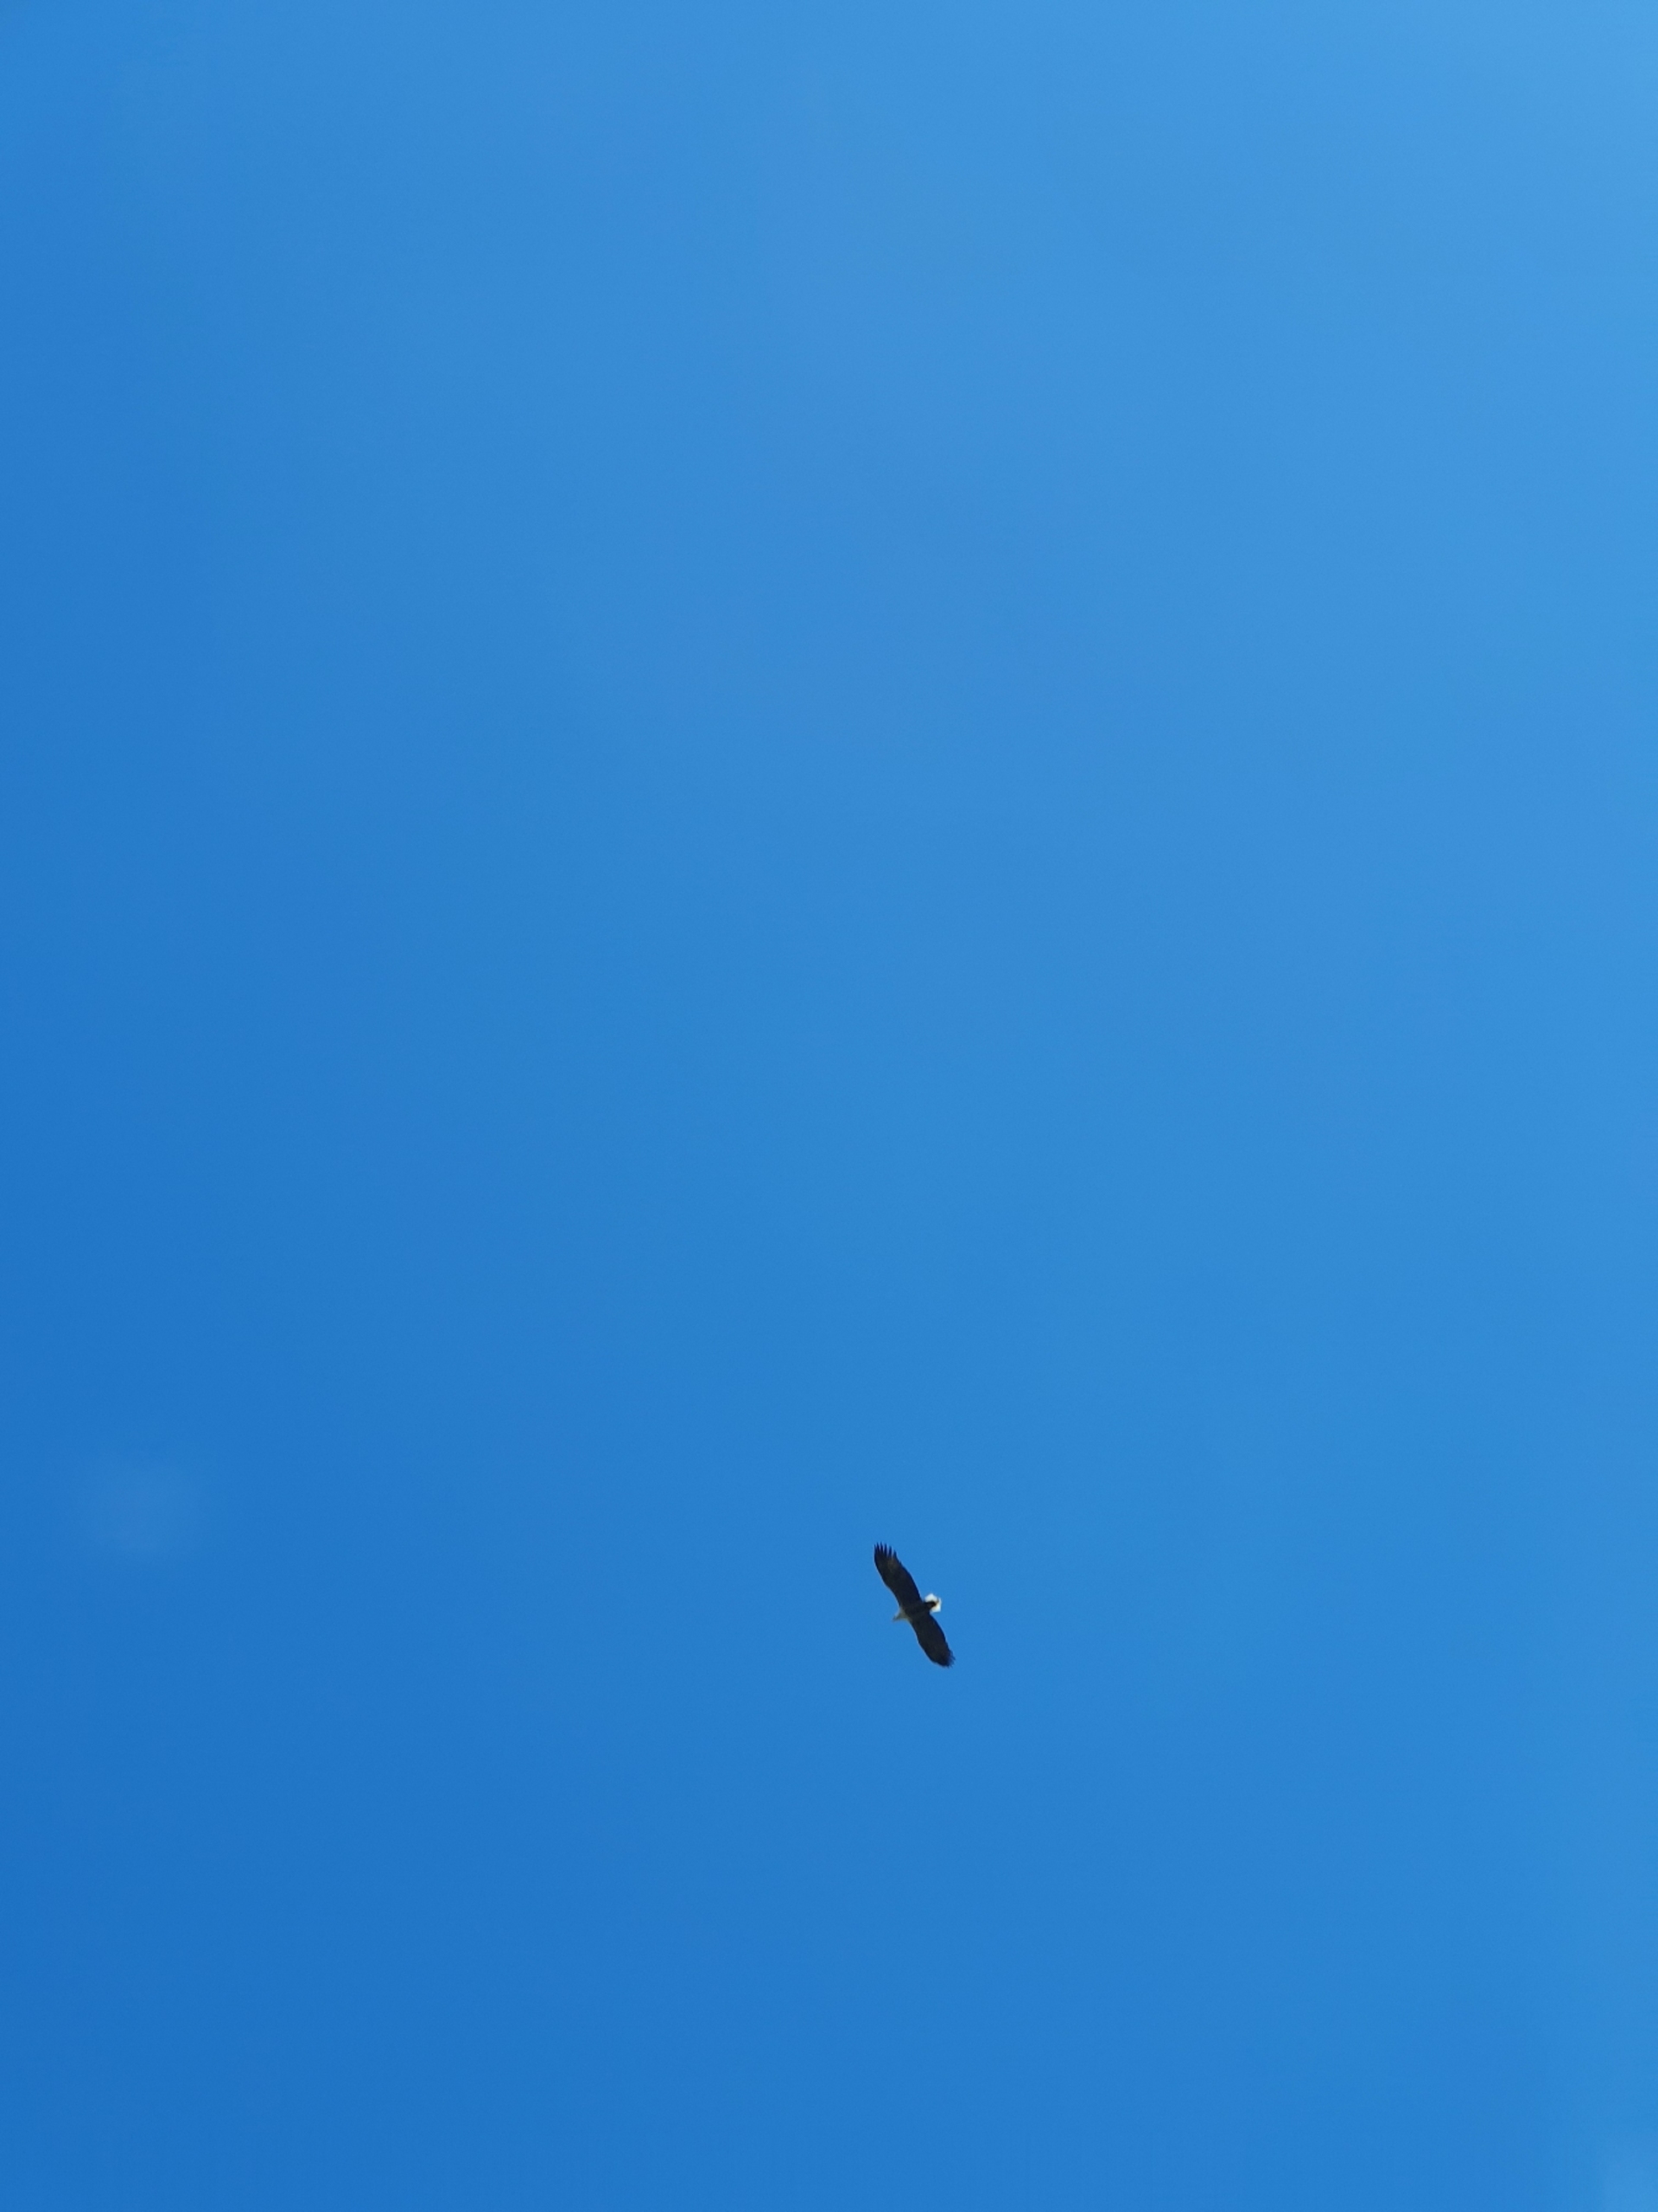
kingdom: Animalia
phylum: Chordata
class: Aves
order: Accipitriformes
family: Accipitridae
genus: Haliaeetus
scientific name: Haliaeetus albicilla
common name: Havørn
